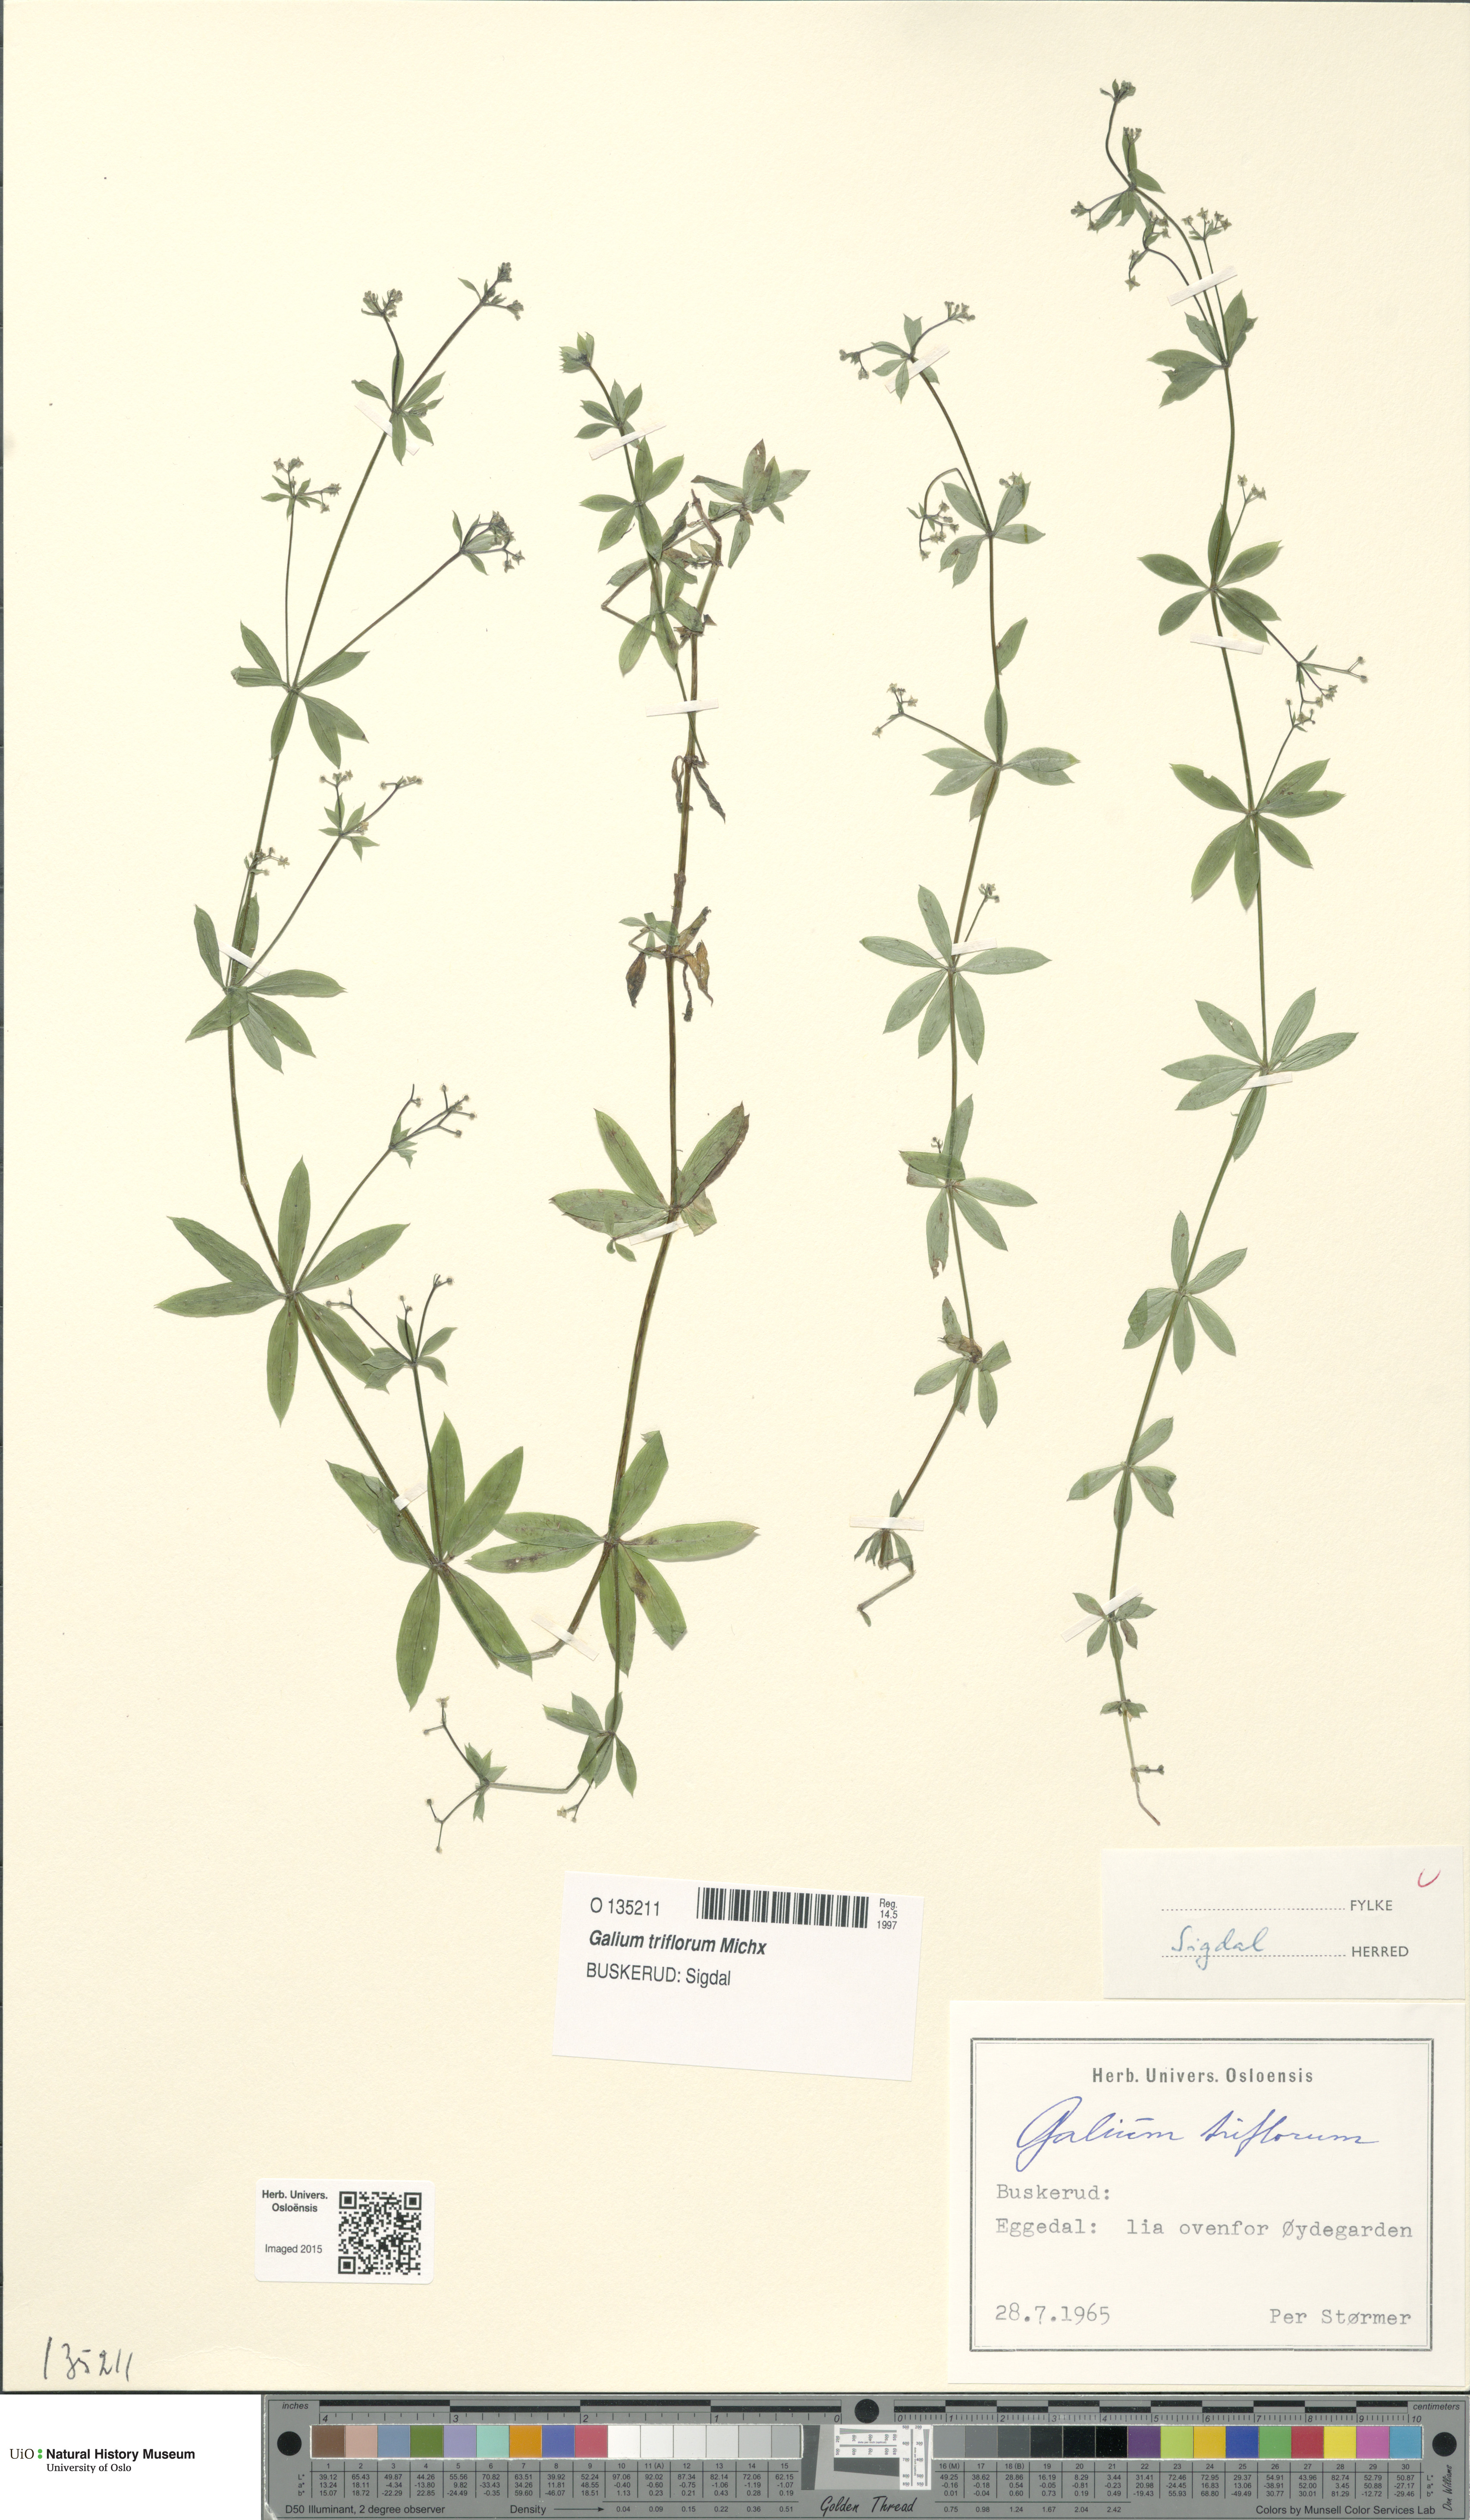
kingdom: Plantae
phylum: Tracheophyta
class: Magnoliopsida
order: Gentianales
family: Rubiaceae
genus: Galium
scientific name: Galium triflorum
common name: Fragrant bedstraw
